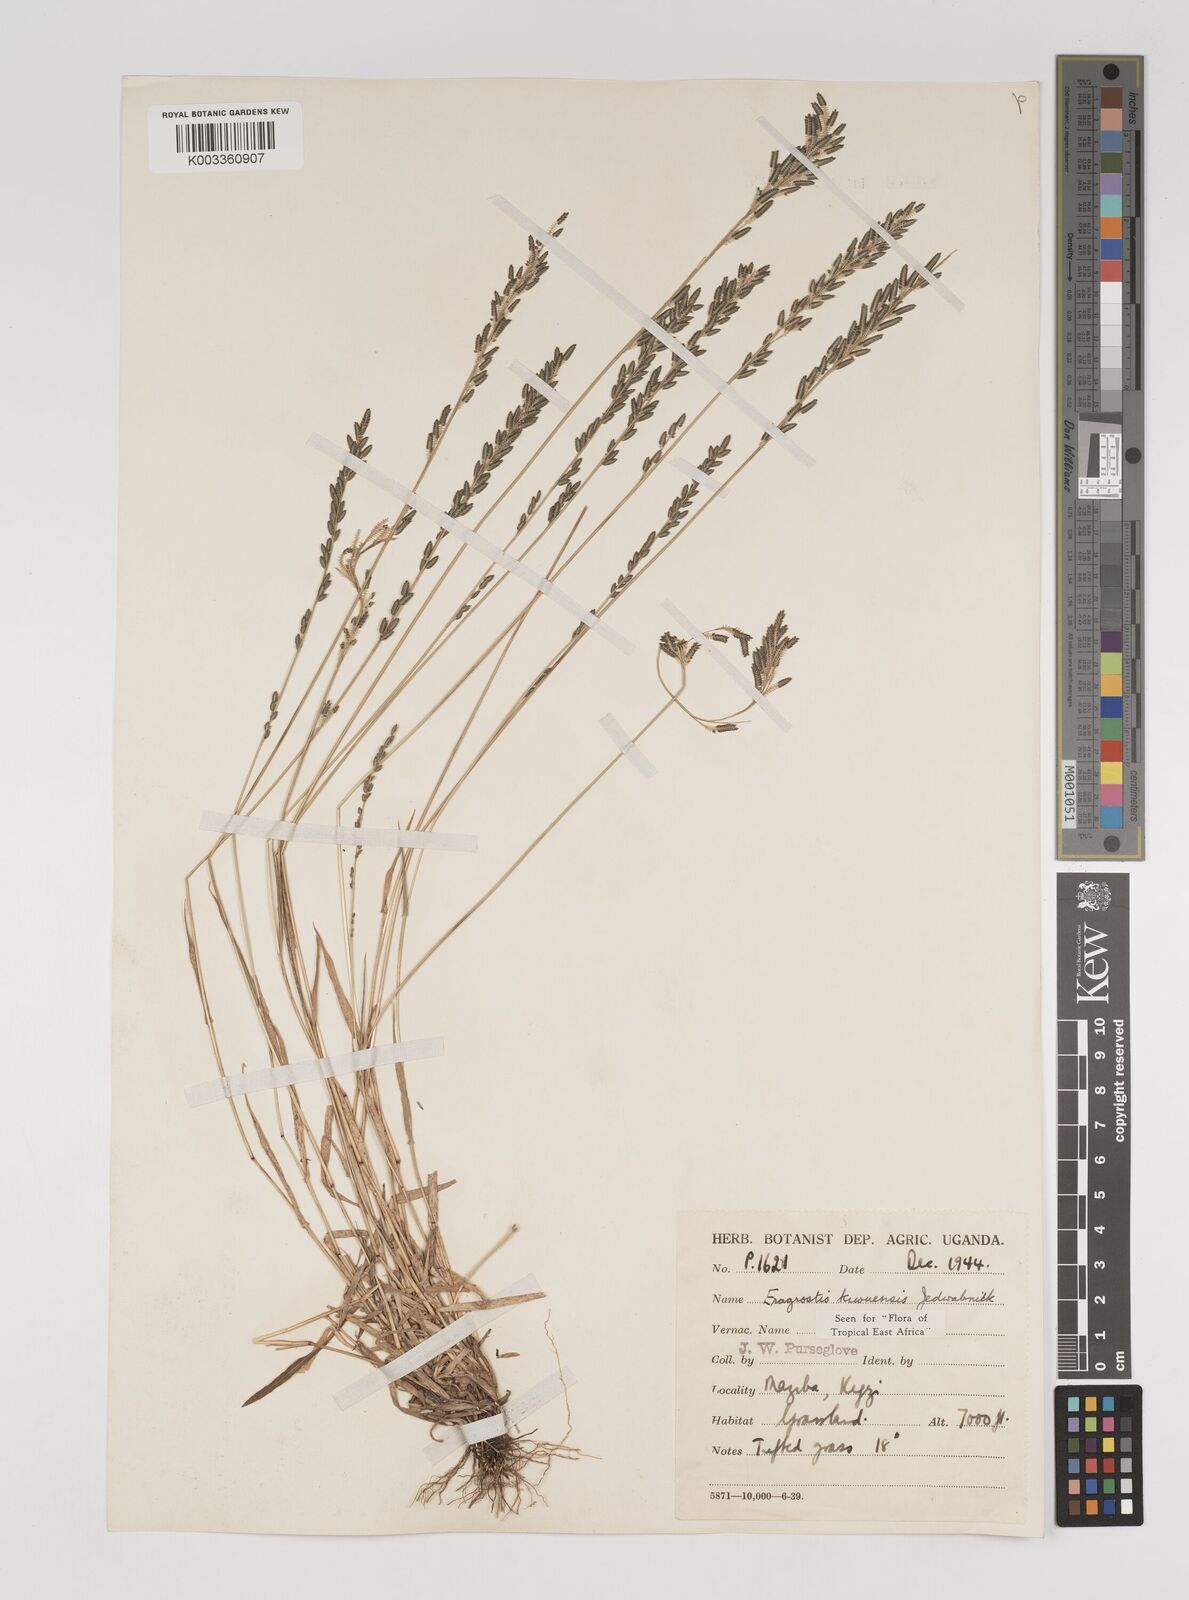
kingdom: Plantae
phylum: Tracheophyta
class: Liliopsida
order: Poales
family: Poaceae
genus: Eragrostis
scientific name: Eragrostis schweinfurthii
